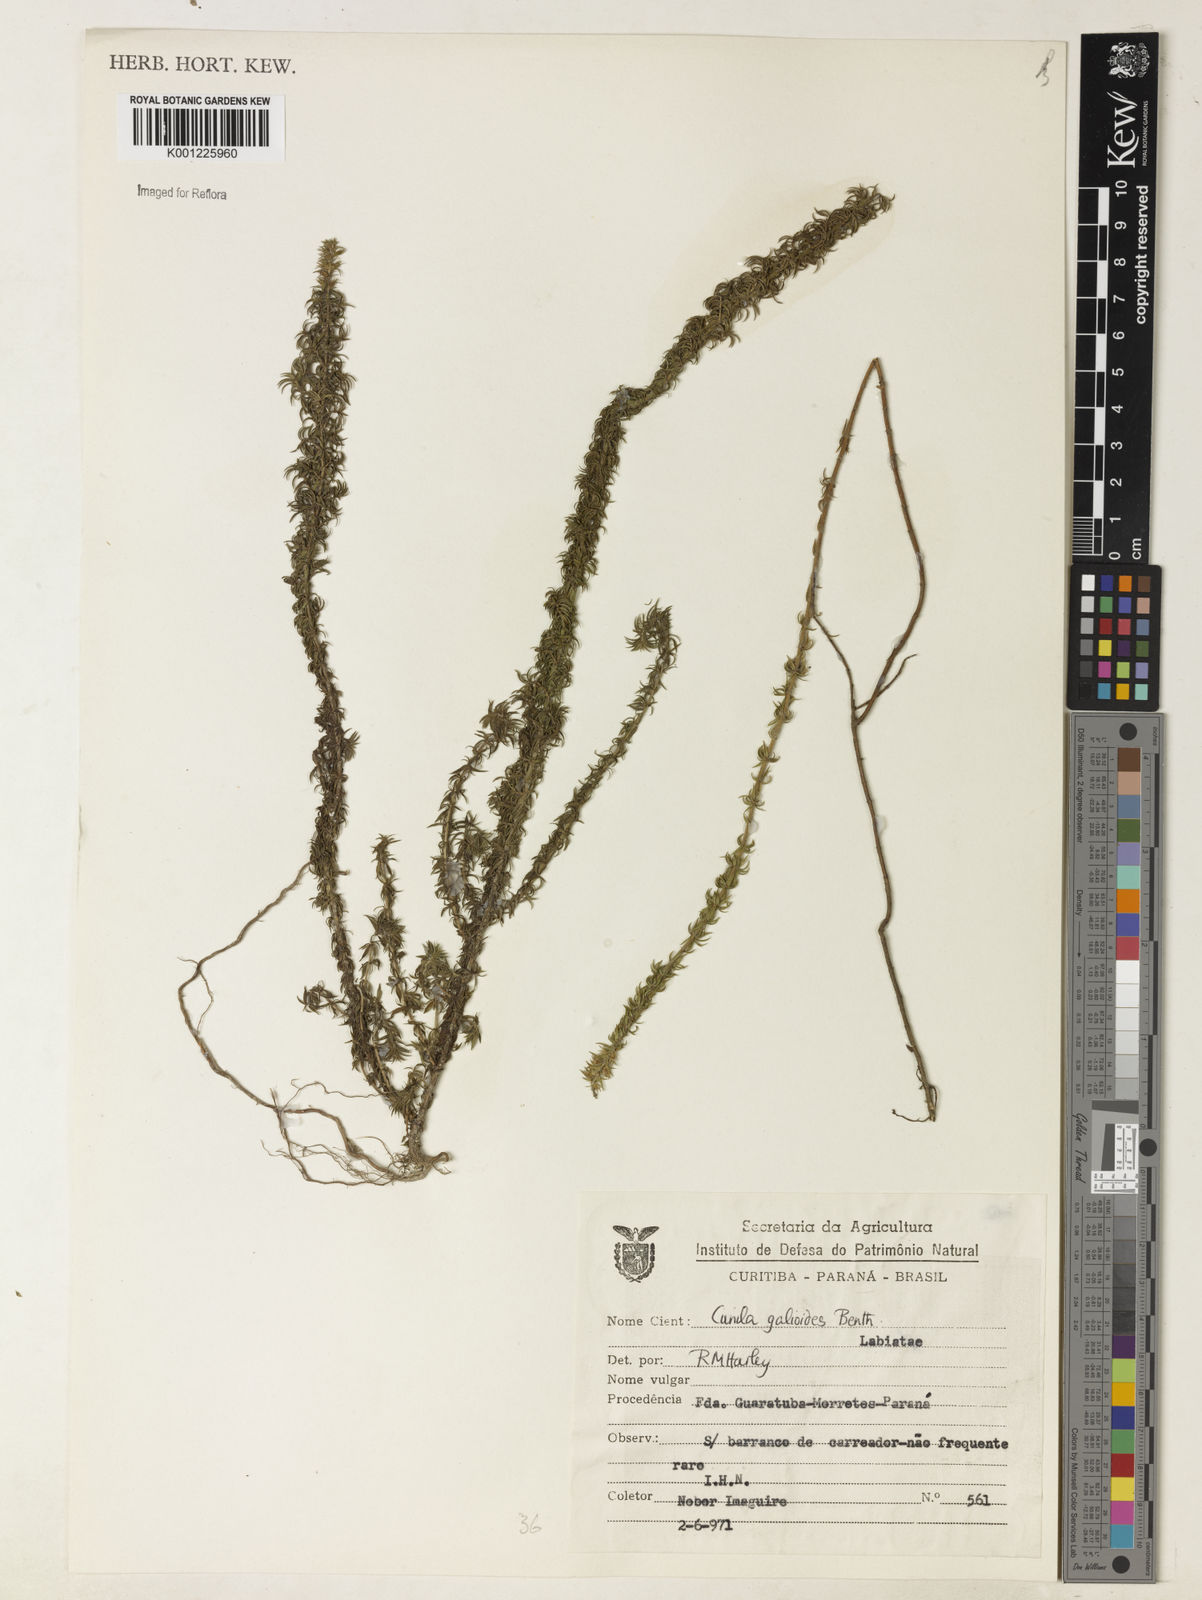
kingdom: Plantae
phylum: Tracheophyta
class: Magnoliopsida
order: Lamiales
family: Lamiaceae
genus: Cunila
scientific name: Cunila galioides
